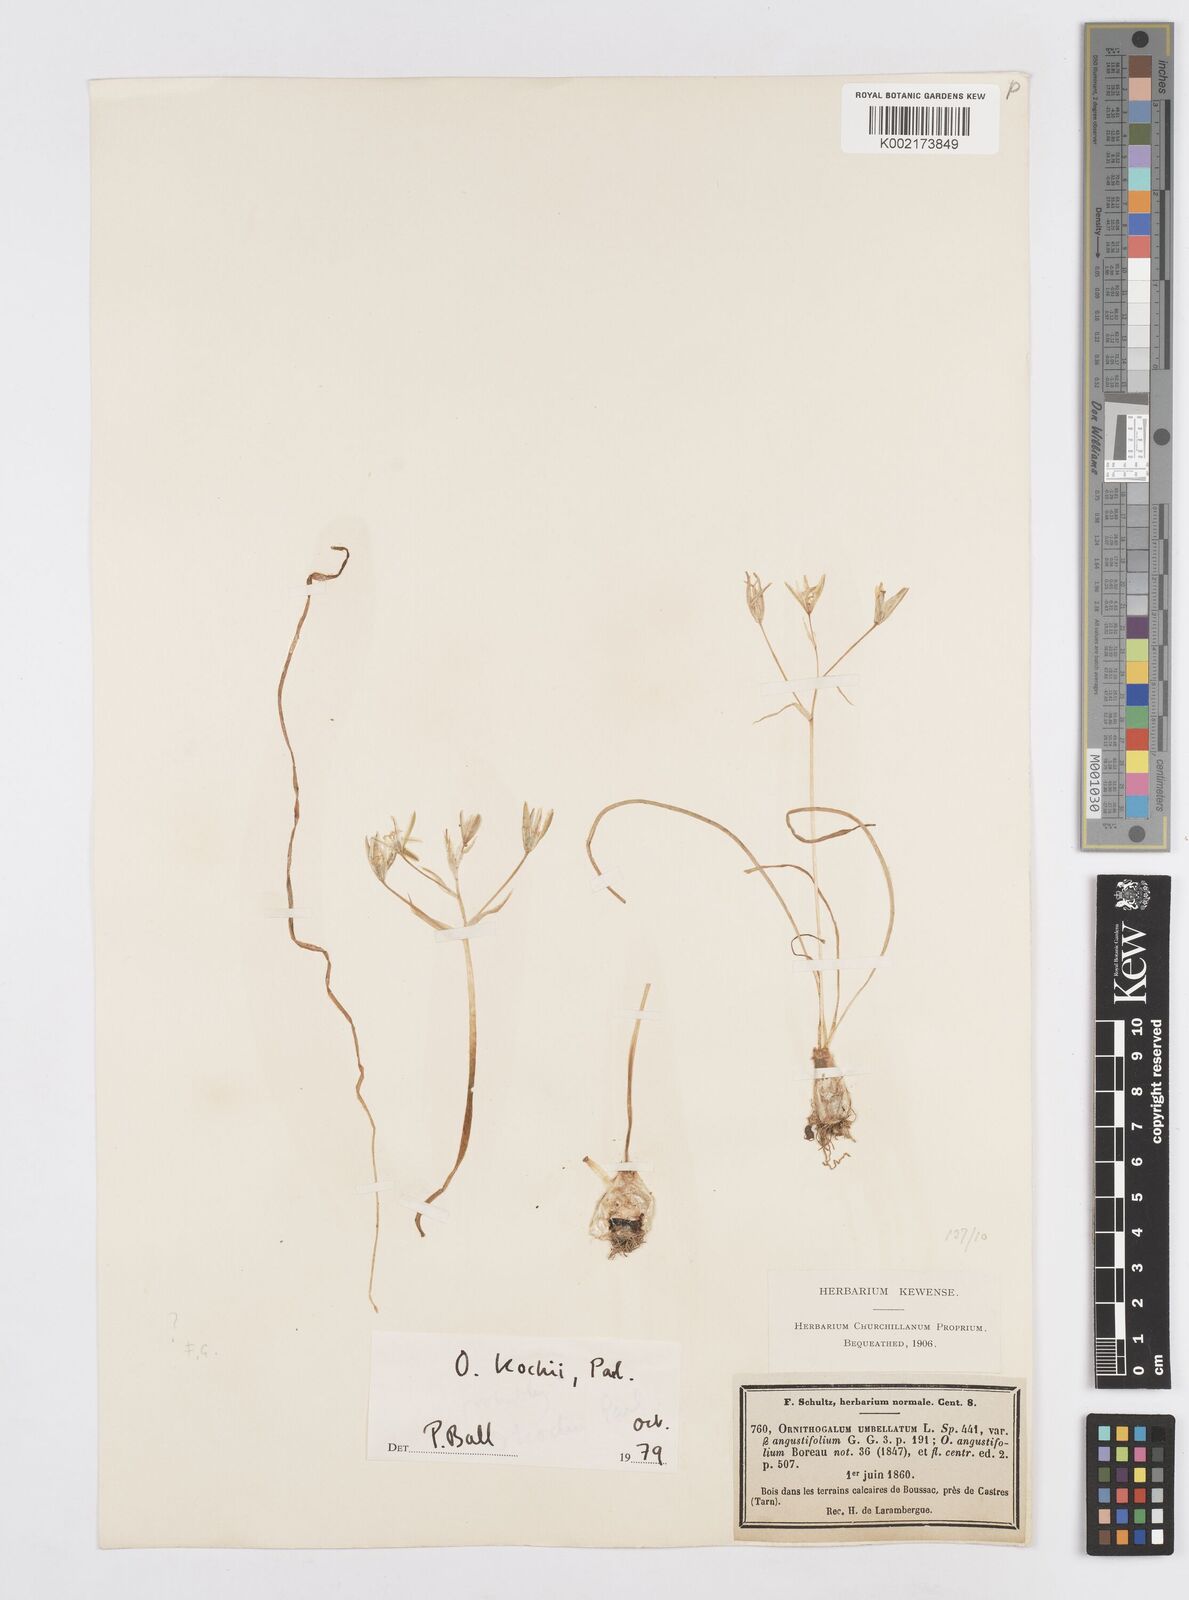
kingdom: Plantae
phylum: Tracheophyta
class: Liliopsida
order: Asparagales
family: Asparagaceae
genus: Ornithogalum
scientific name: Ornithogalum orthophyllum
